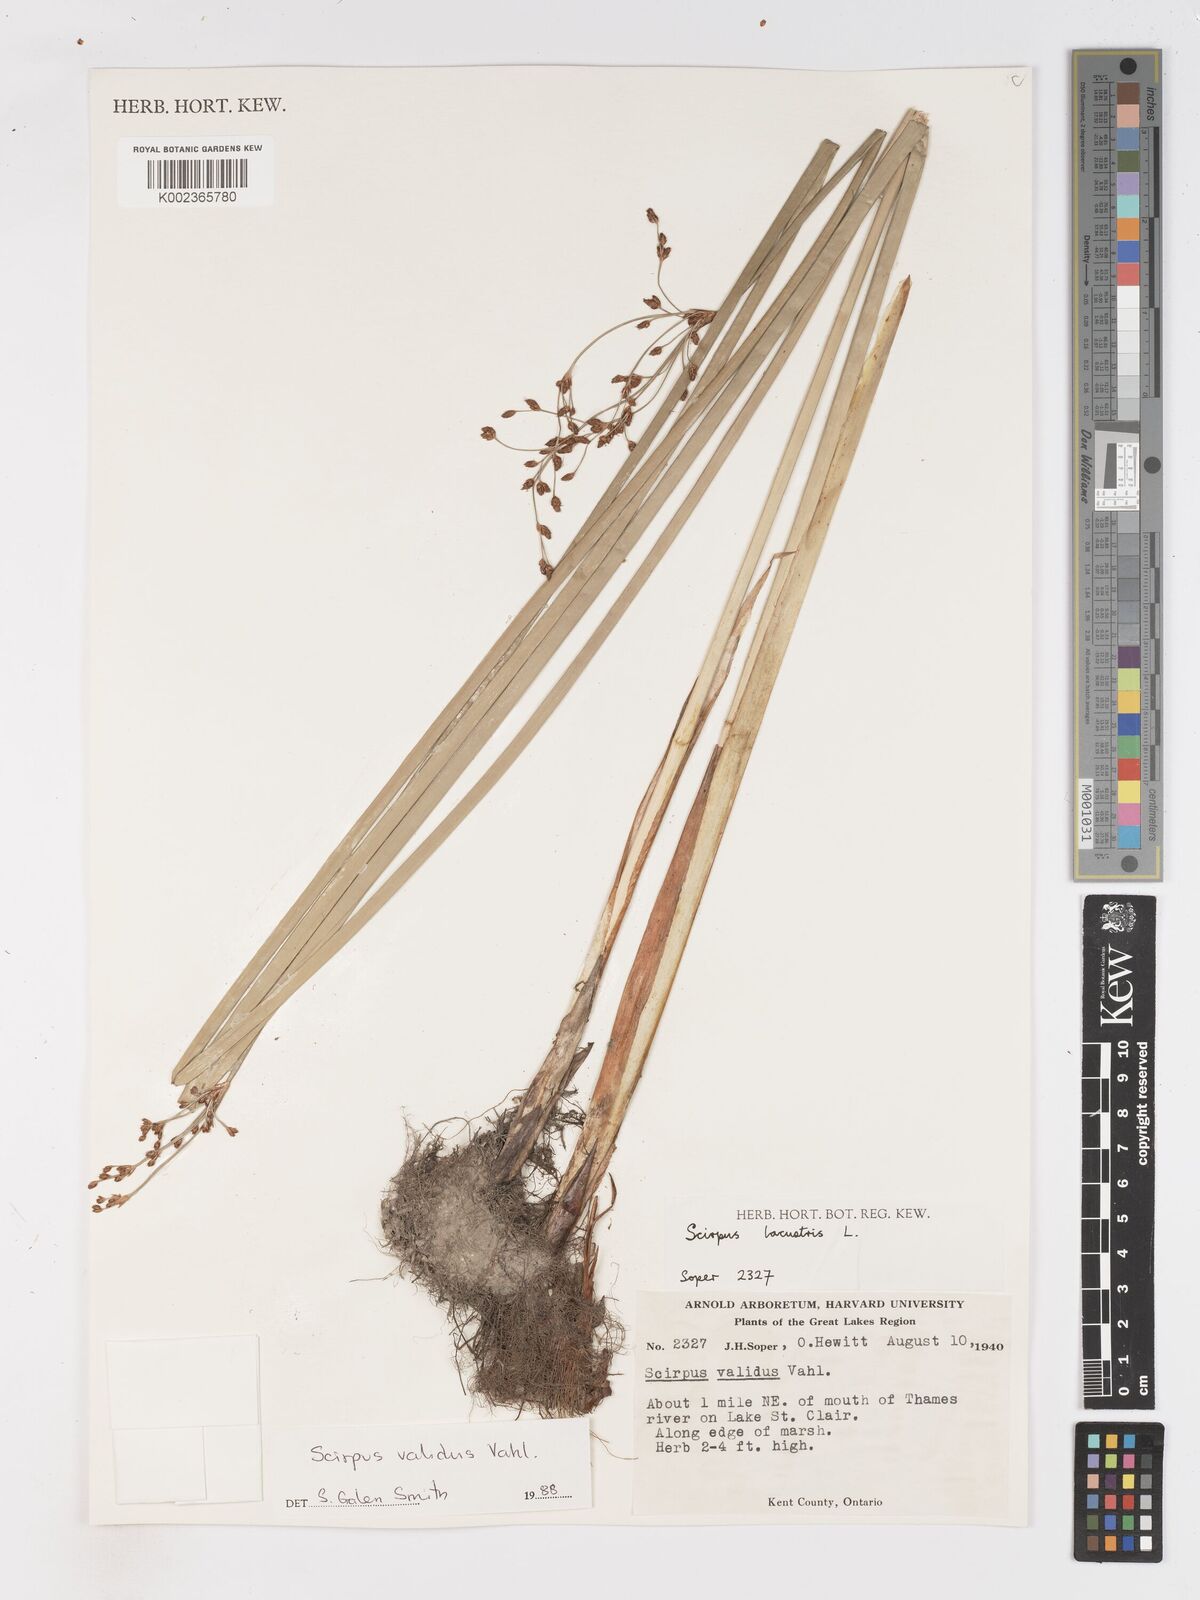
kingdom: Plantae
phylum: Tracheophyta
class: Liliopsida
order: Poales
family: Cyperaceae
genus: Schoenoplectus
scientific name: Schoenoplectus tabernaemontani
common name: Grey club-rush
